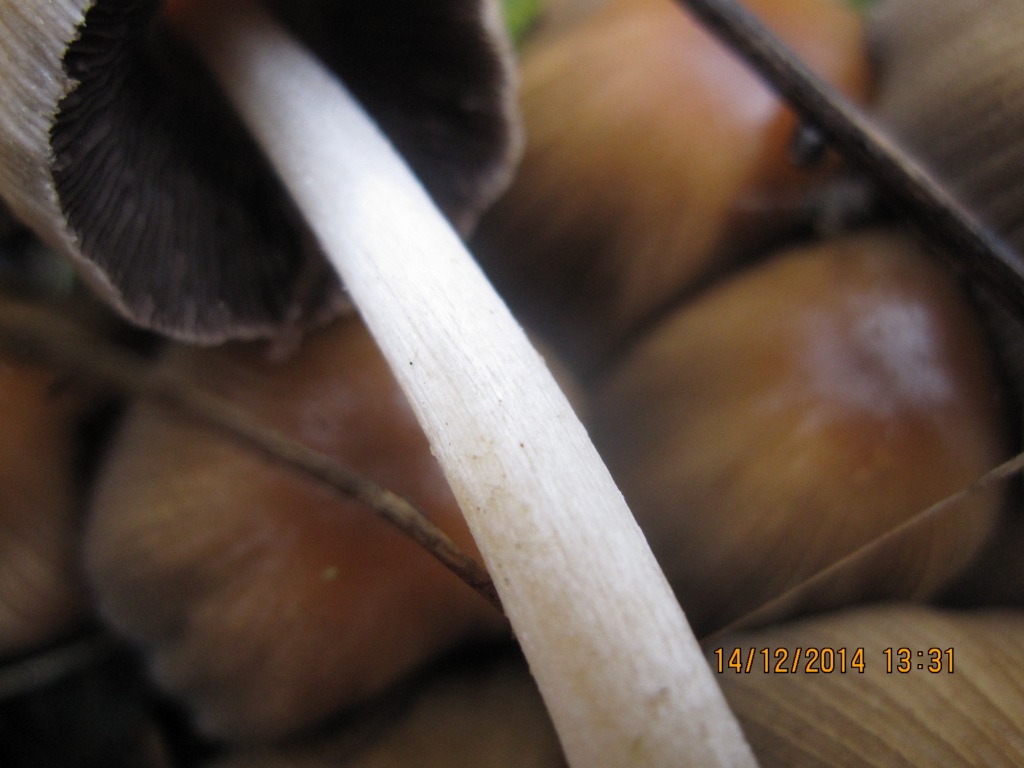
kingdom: Fungi
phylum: Basidiomycota
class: Agaricomycetes
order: Agaricales
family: Psathyrellaceae
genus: Coprinellus
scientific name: Coprinellus micaceus
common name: glimmer-blækhat
